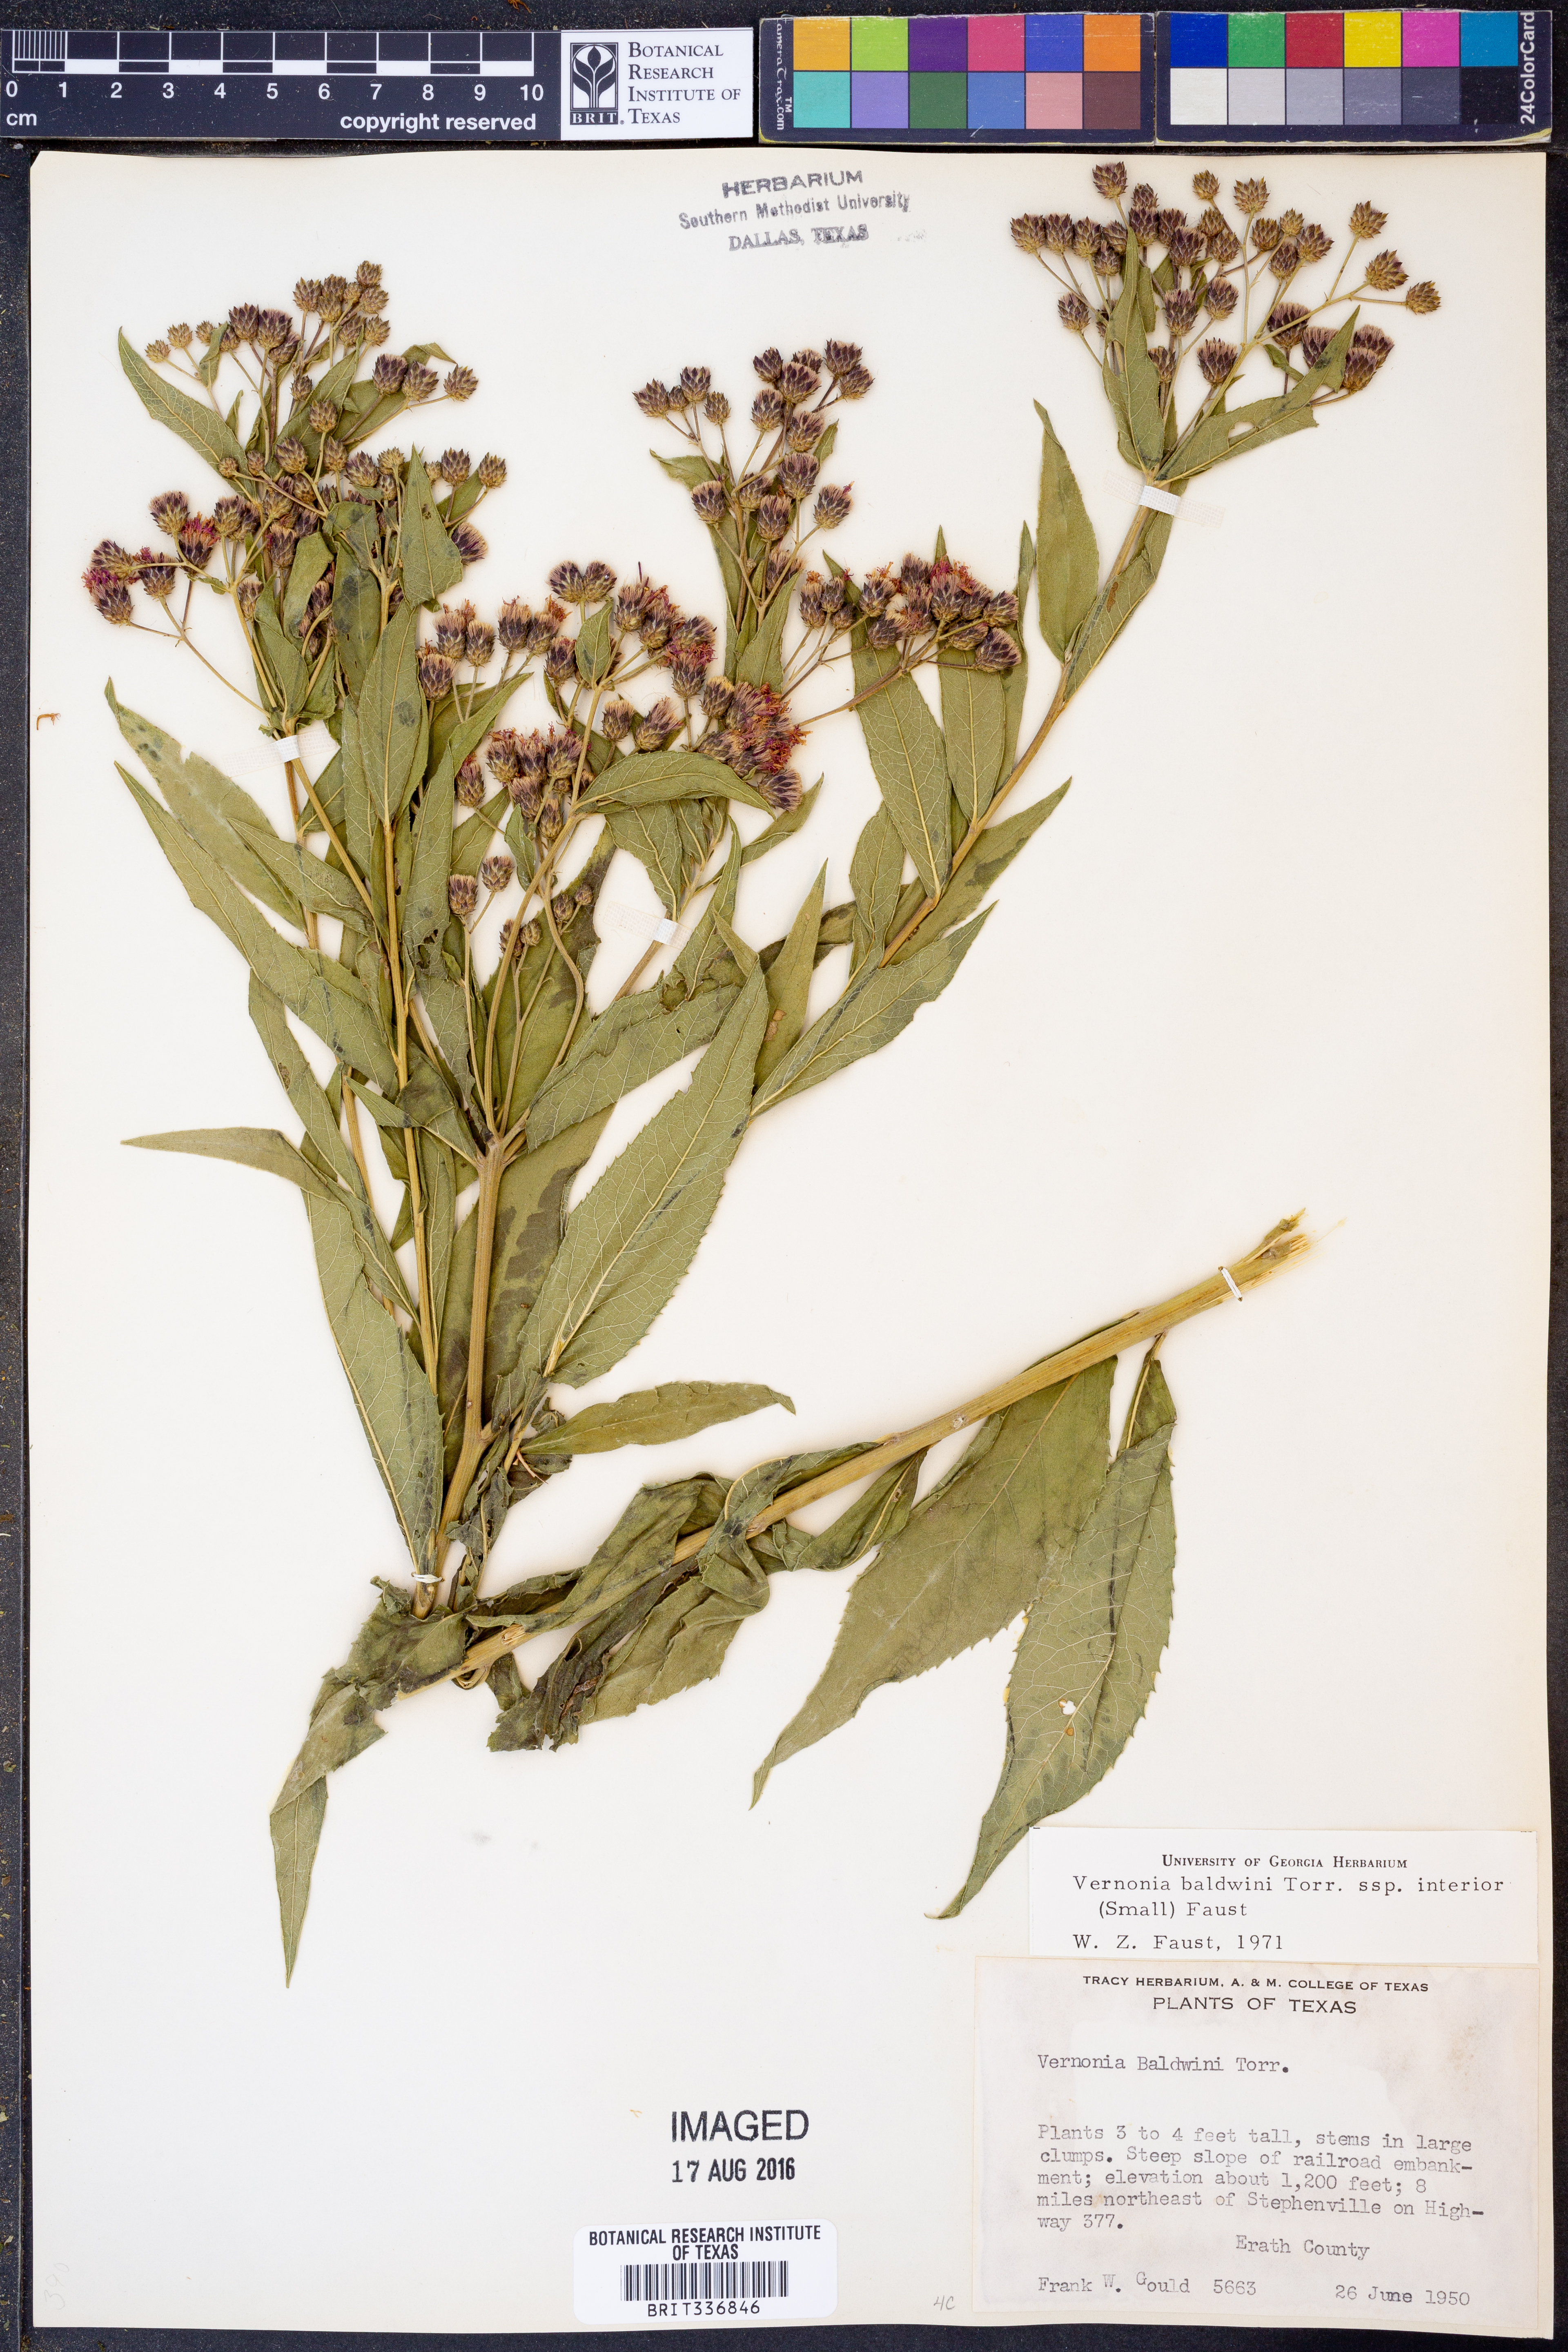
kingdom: Plantae
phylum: Tracheophyta
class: Magnoliopsida
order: Asterales
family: Asteraceae
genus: Vernonia
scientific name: Vernonia baldwinii
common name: Western ironweed
